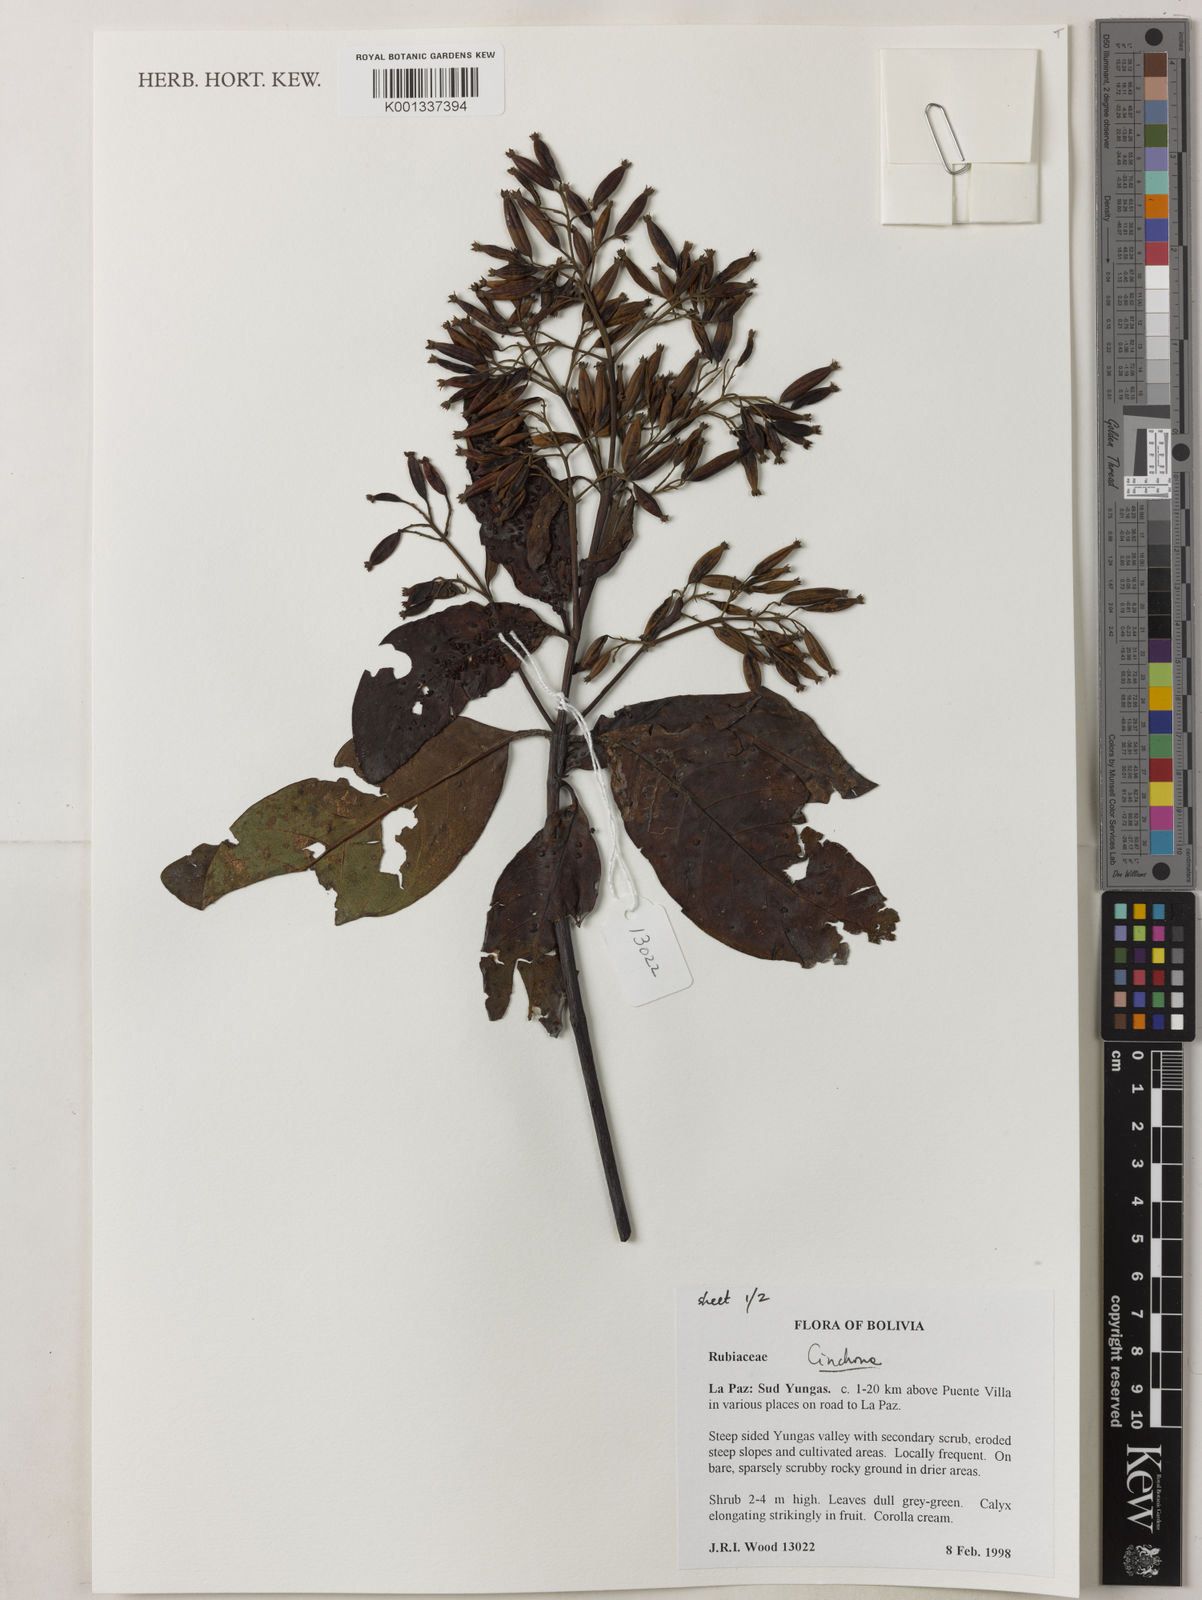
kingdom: Plantae
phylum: Tracheophyta
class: Magnoliopsida
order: Gentianales
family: Rubiaceae
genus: Cinchona
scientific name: Cinchona
